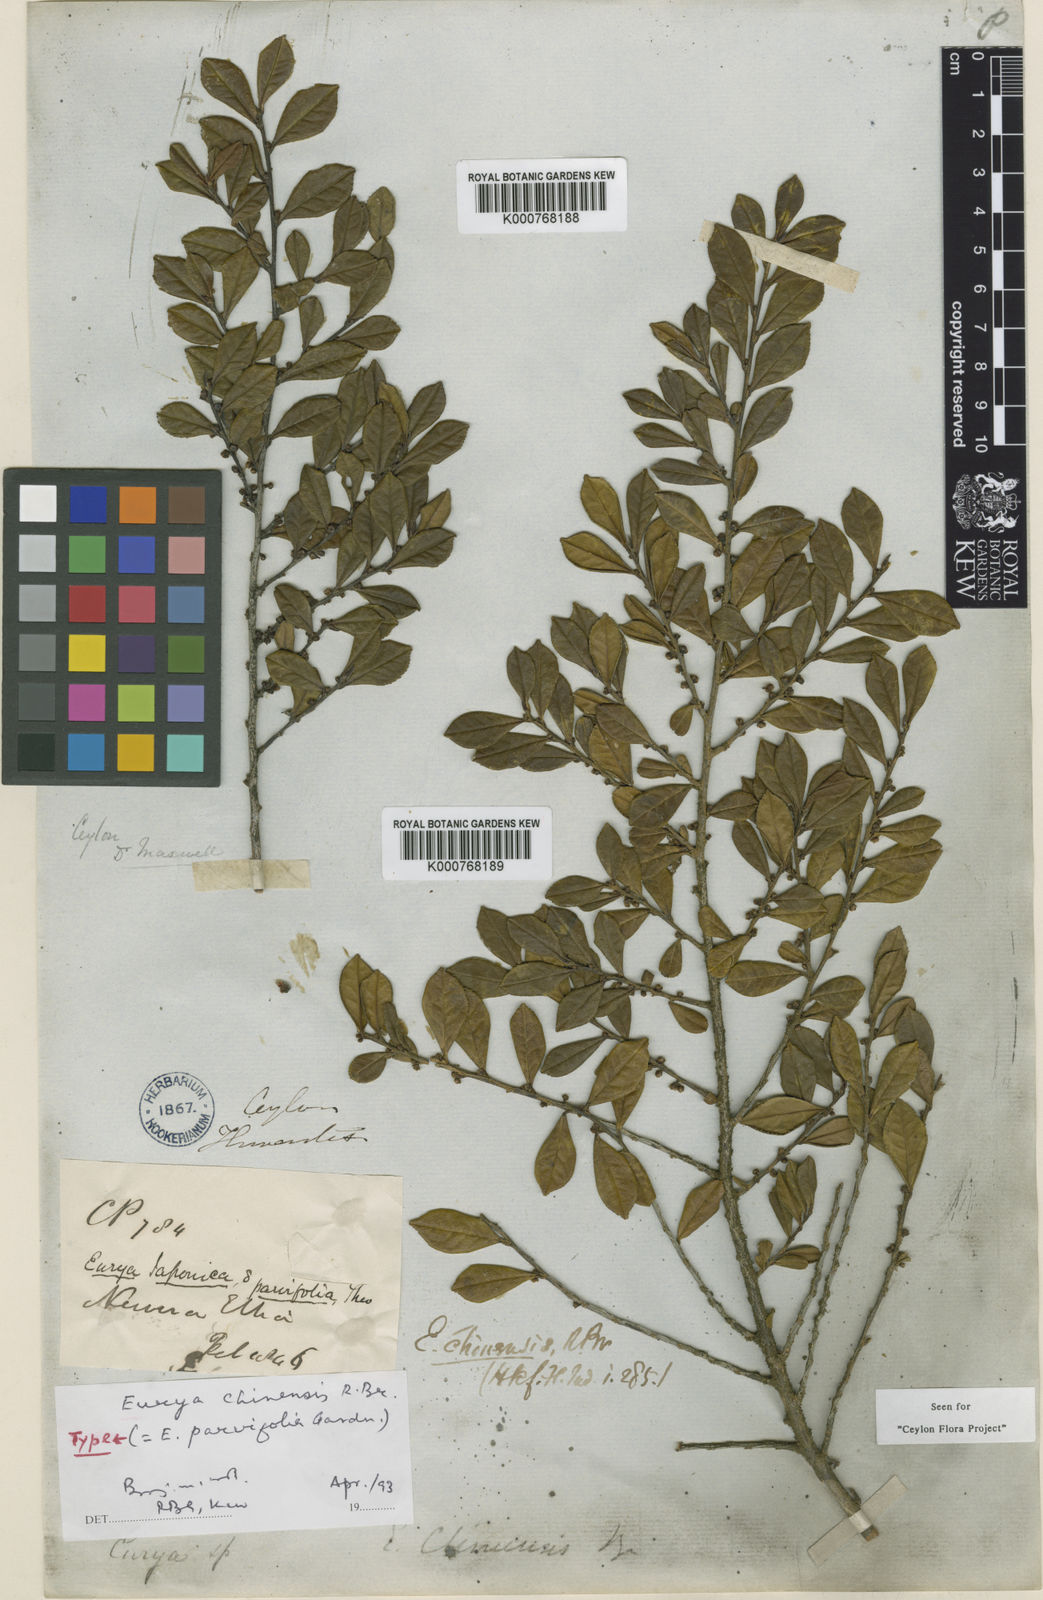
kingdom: Plantae
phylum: Tracheophyta
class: Magnoliopsida
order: Ericales
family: Pentaphylacaceae
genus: Eurya
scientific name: Eurya chinensis
